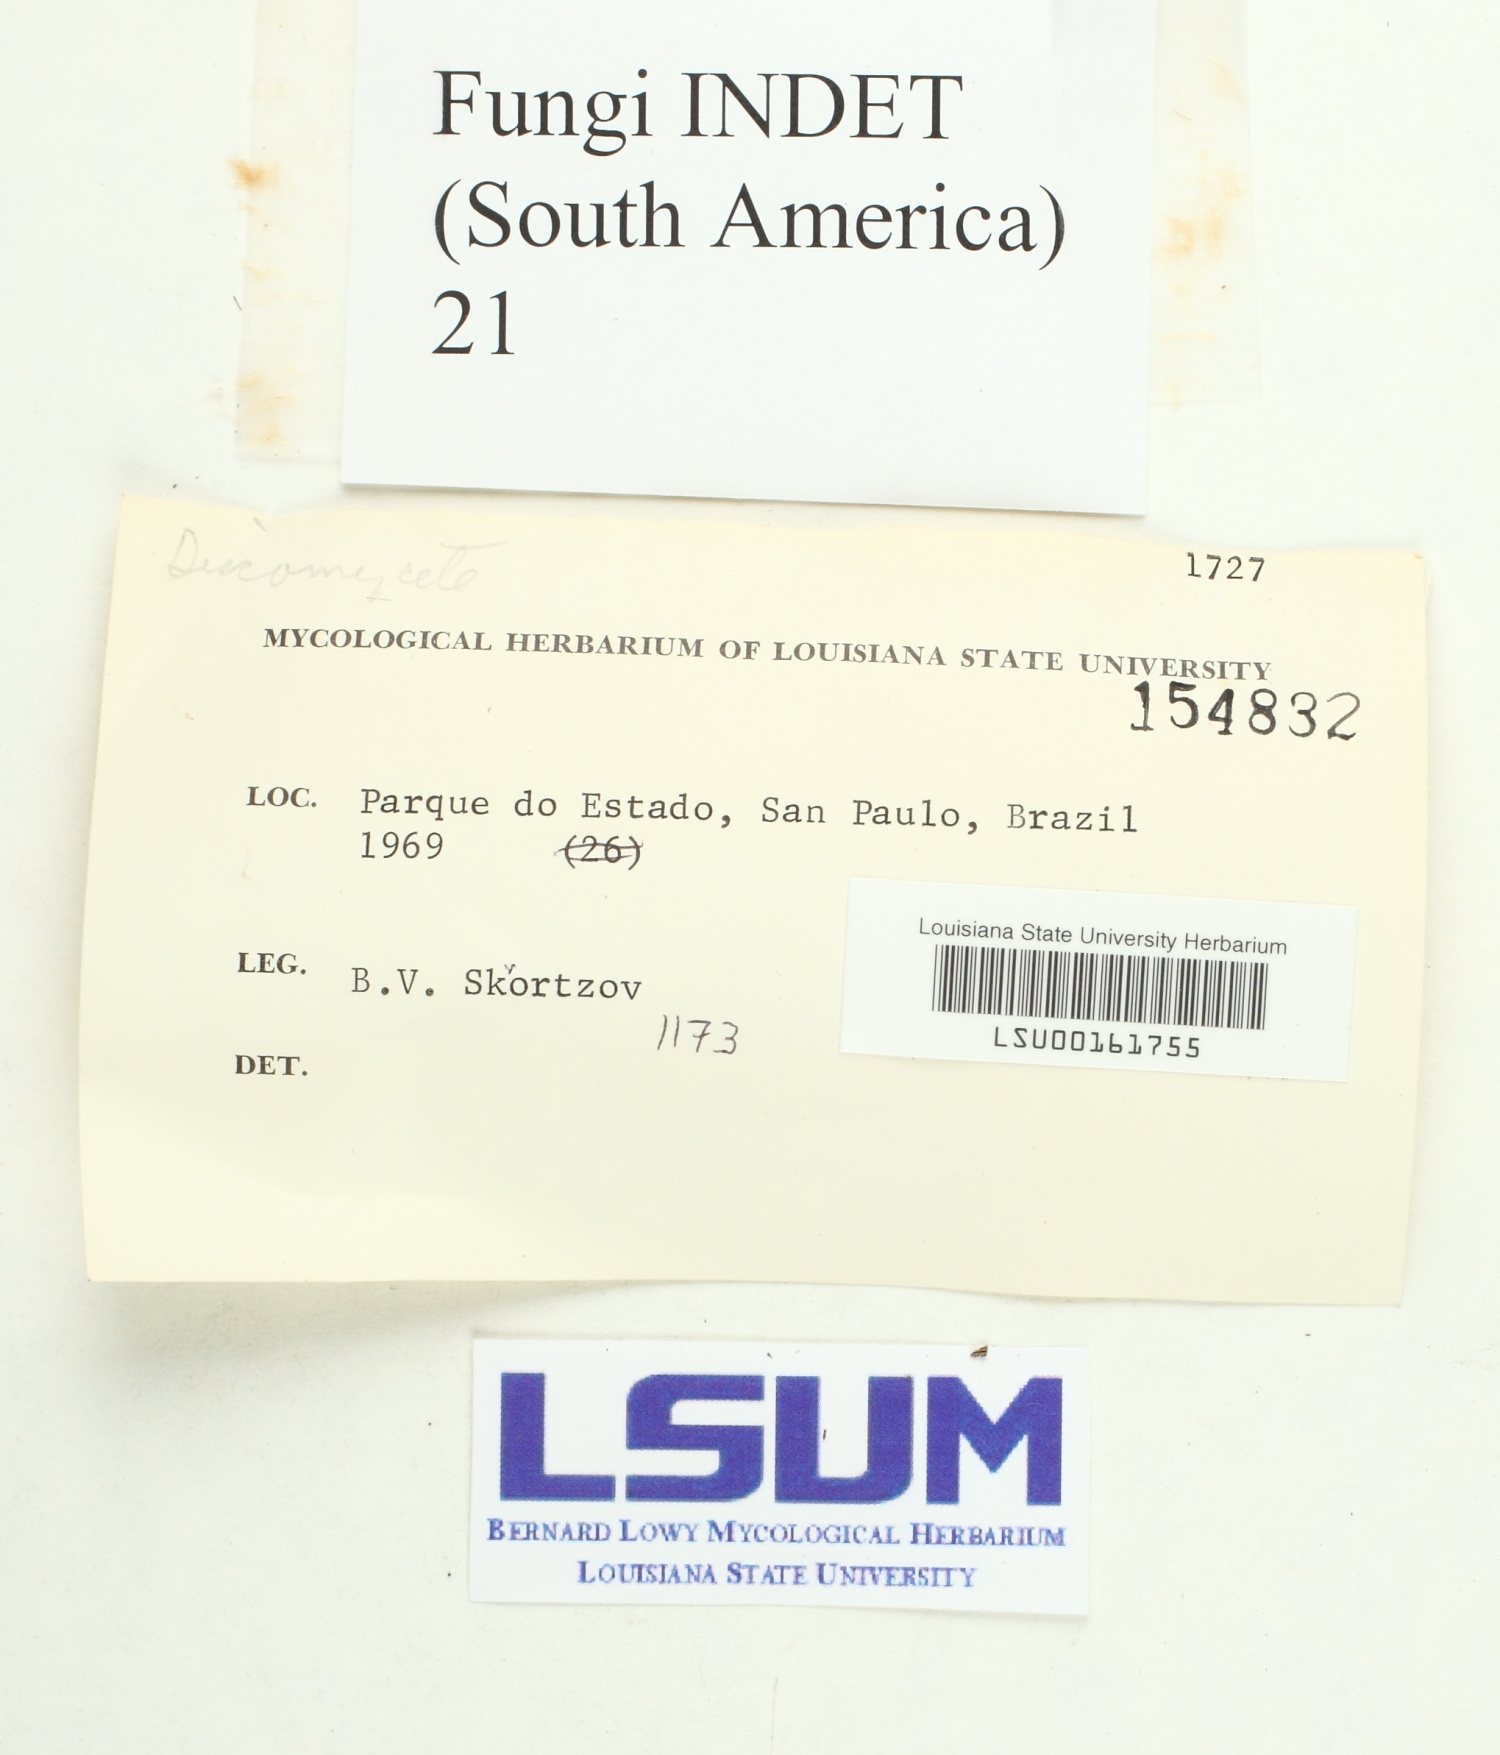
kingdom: Fungi
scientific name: Fungi
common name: Fungi
